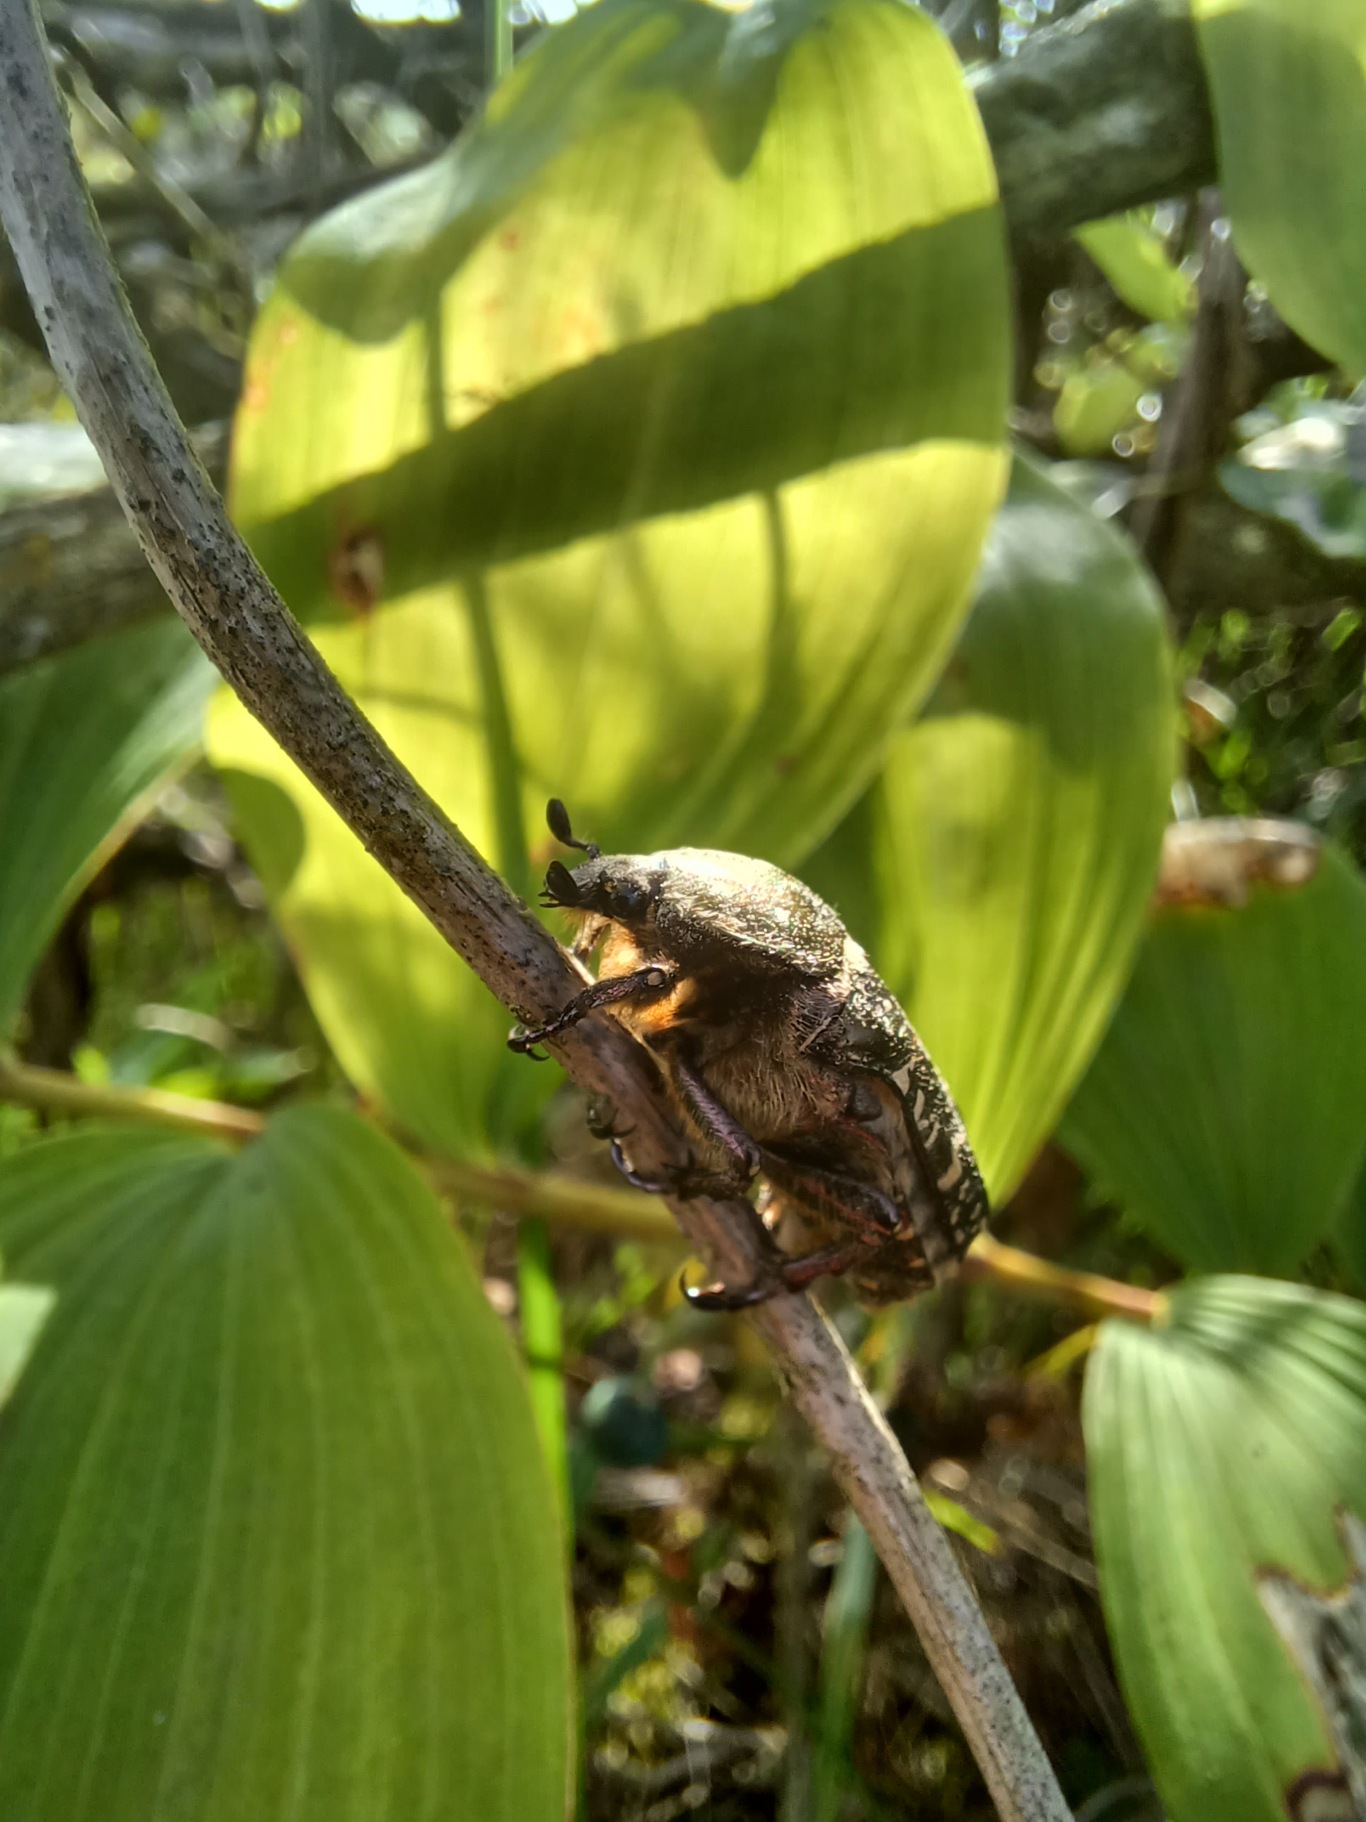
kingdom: Animalia
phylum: Arthropoda
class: Insecta
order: Coleoptera
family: Scarabaeidae
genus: Protaetia
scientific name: Protaetia cuprea
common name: Kobberguldbasse
